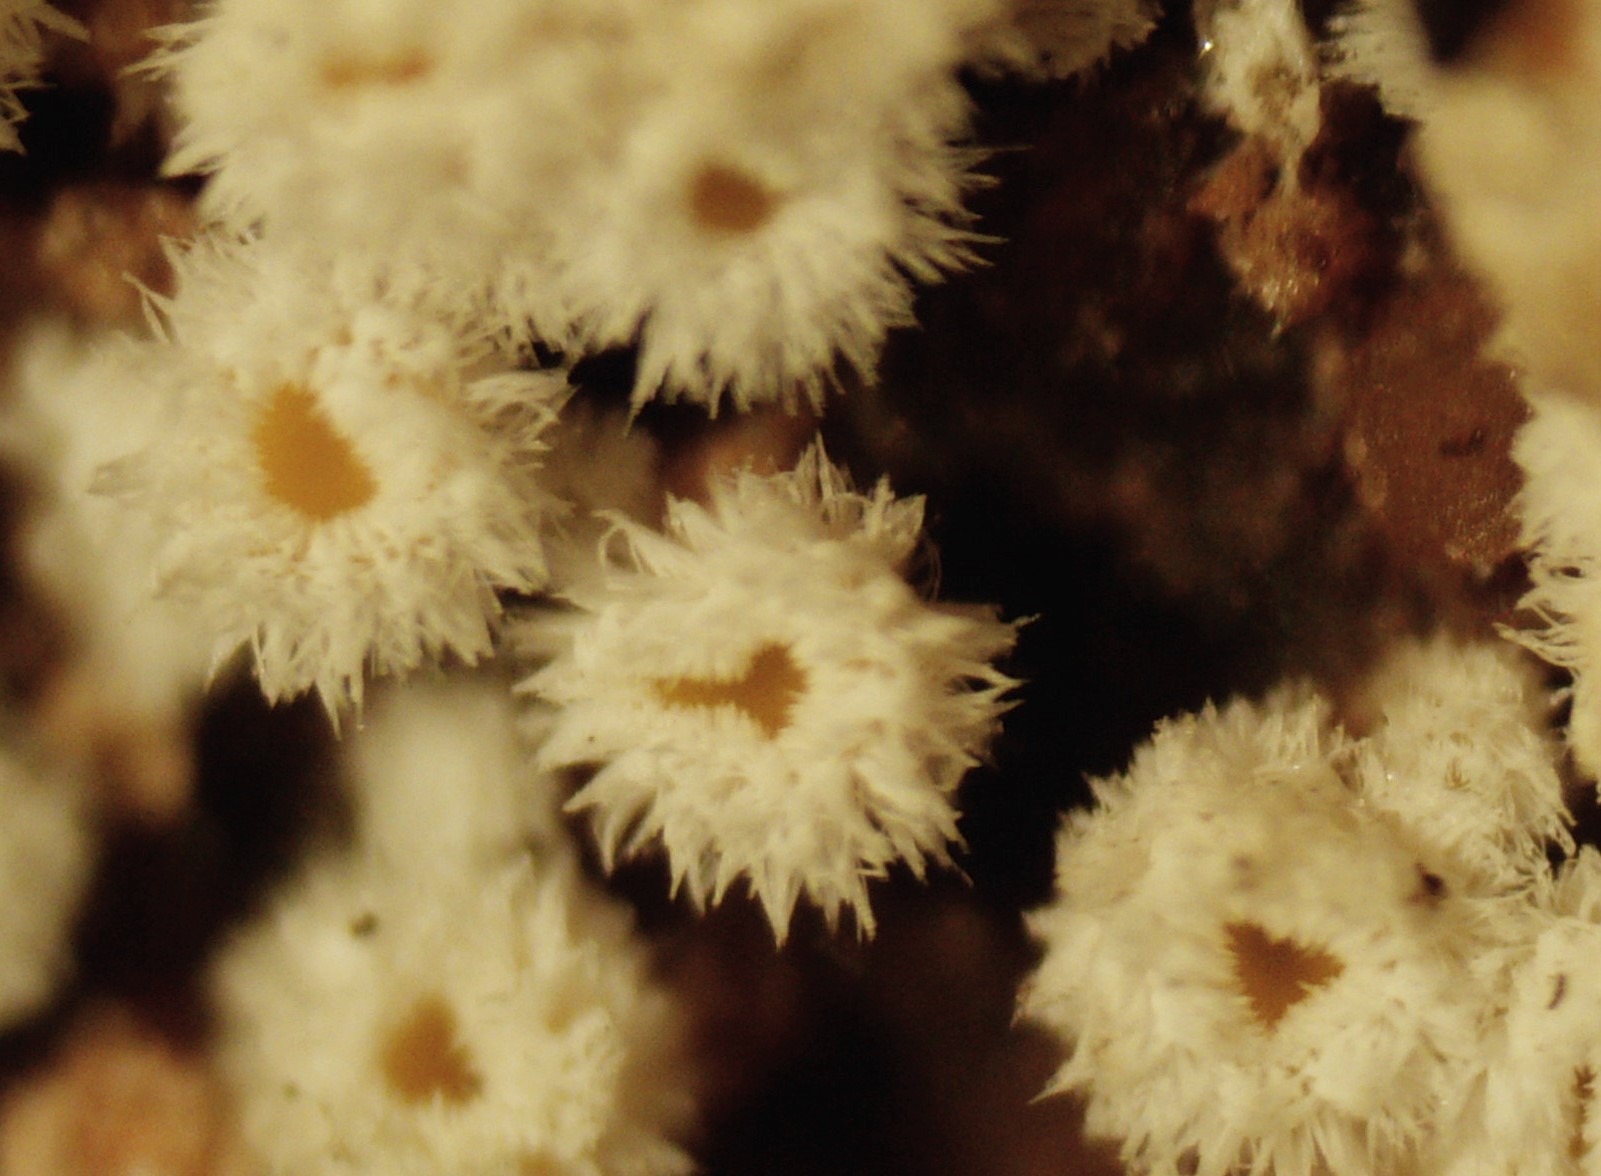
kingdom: Fungi
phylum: Ascomycota
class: Leotiomycetes
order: Helotiales
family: Lachnaceae
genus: Capitotricha
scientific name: Capitotricha bicolor
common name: prægtig frynseskive
